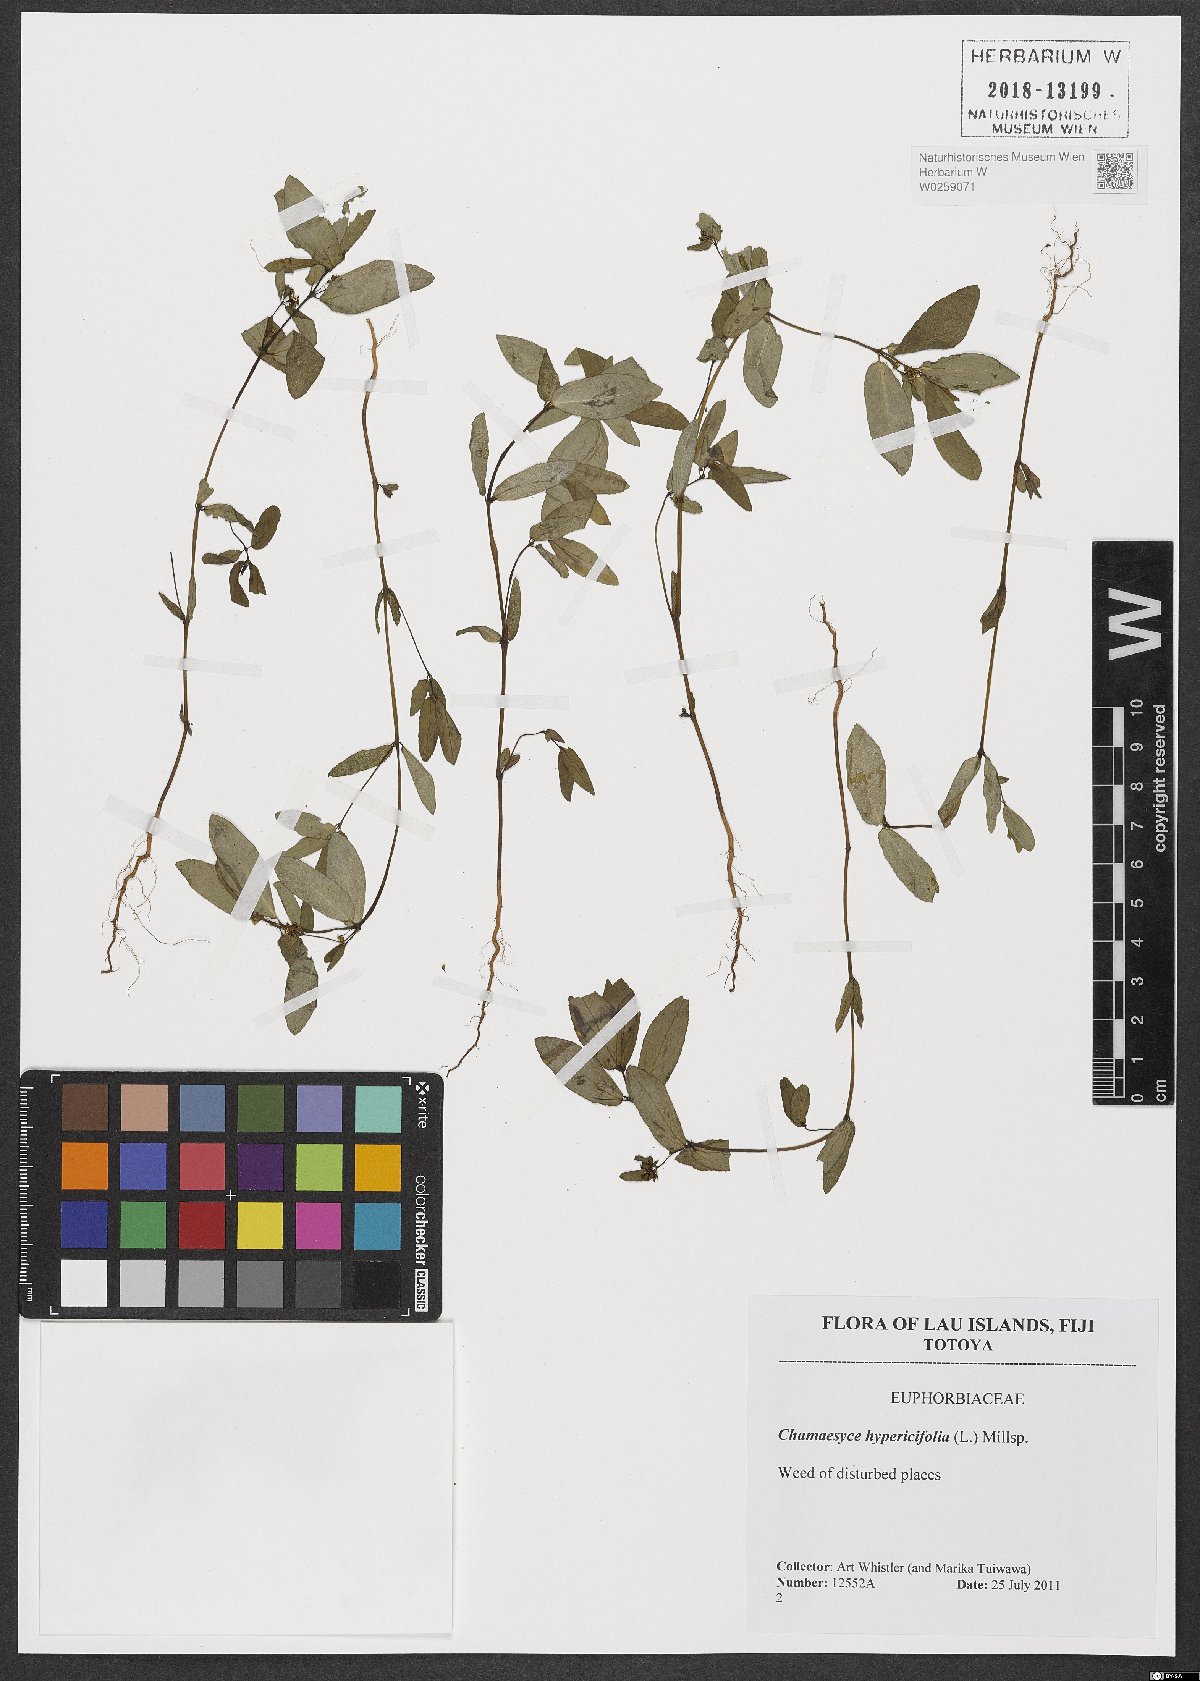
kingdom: Plantae
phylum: Tracheophyta
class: Magnoliopsida
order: Malpighiales
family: Euphorbiaceae
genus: Euphorbia
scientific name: Euphorbia hypericifolia
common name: Graceful sandmat
